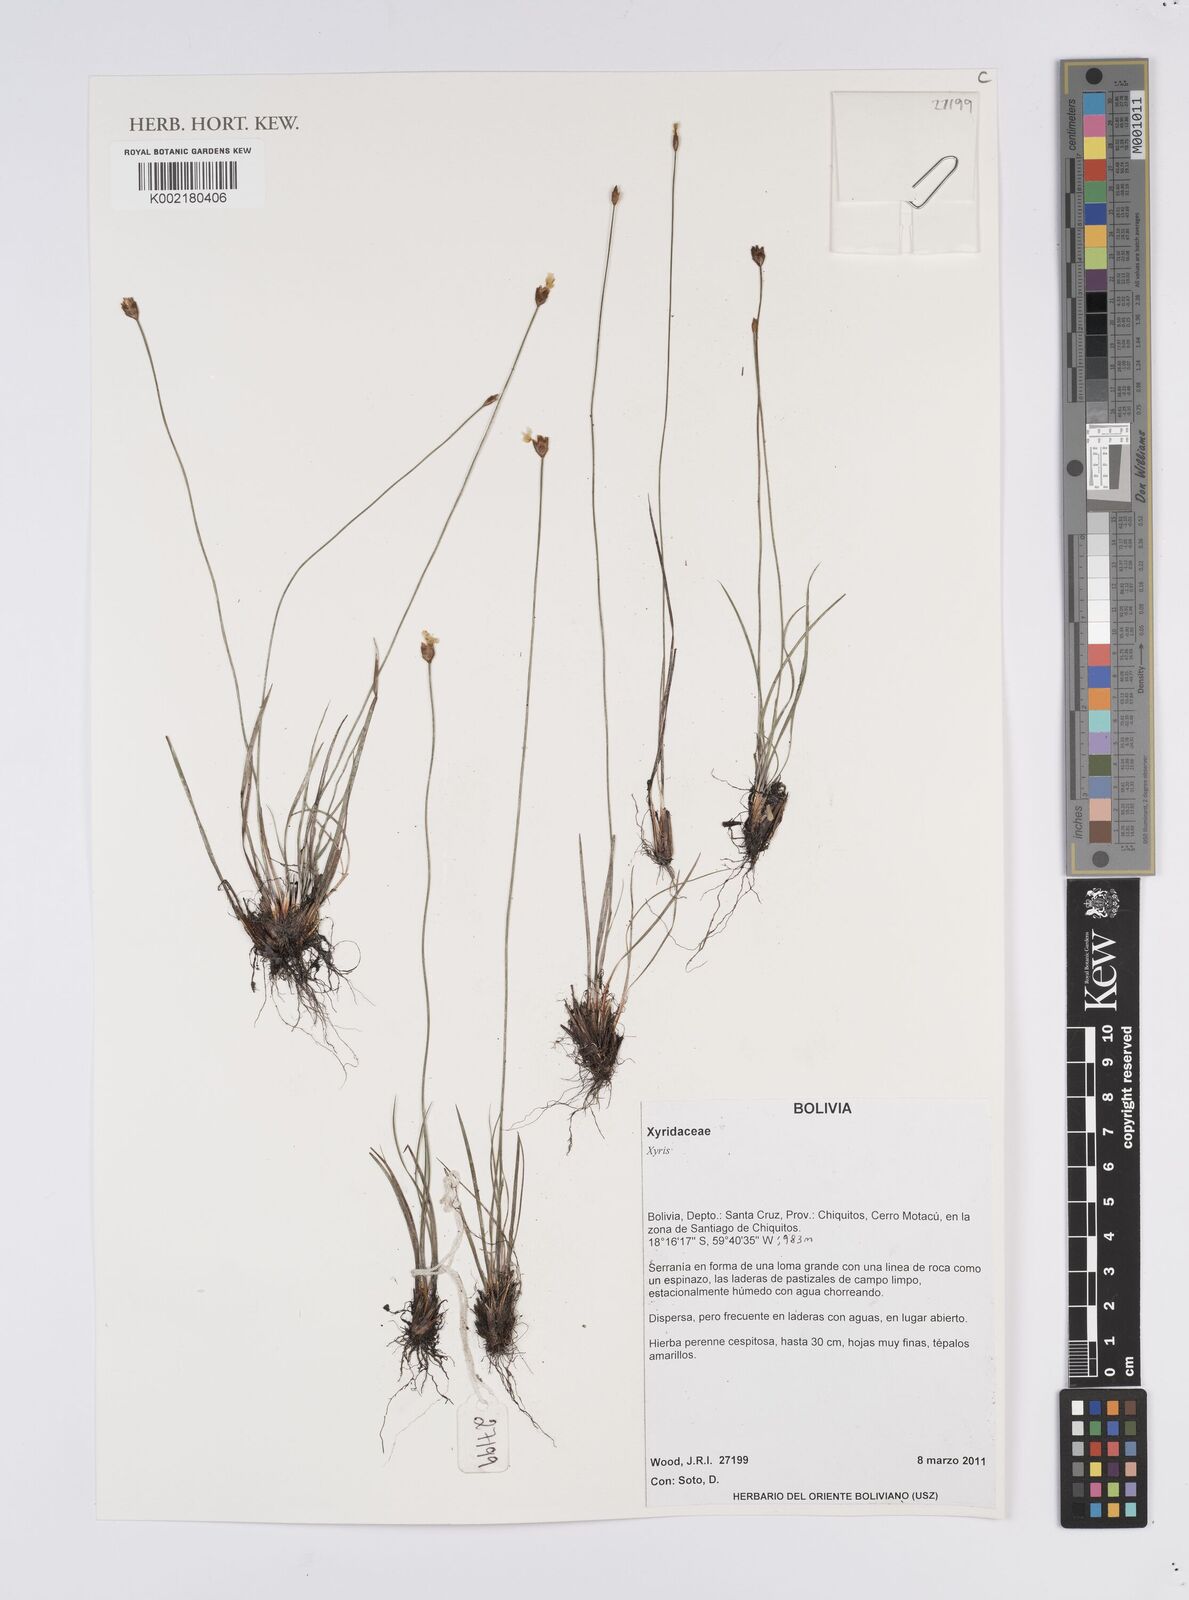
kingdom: Plantae
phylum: Tracheophyta
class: Liliopsida
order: Poales
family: Xyridaceae
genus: Xyris
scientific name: Xyris
